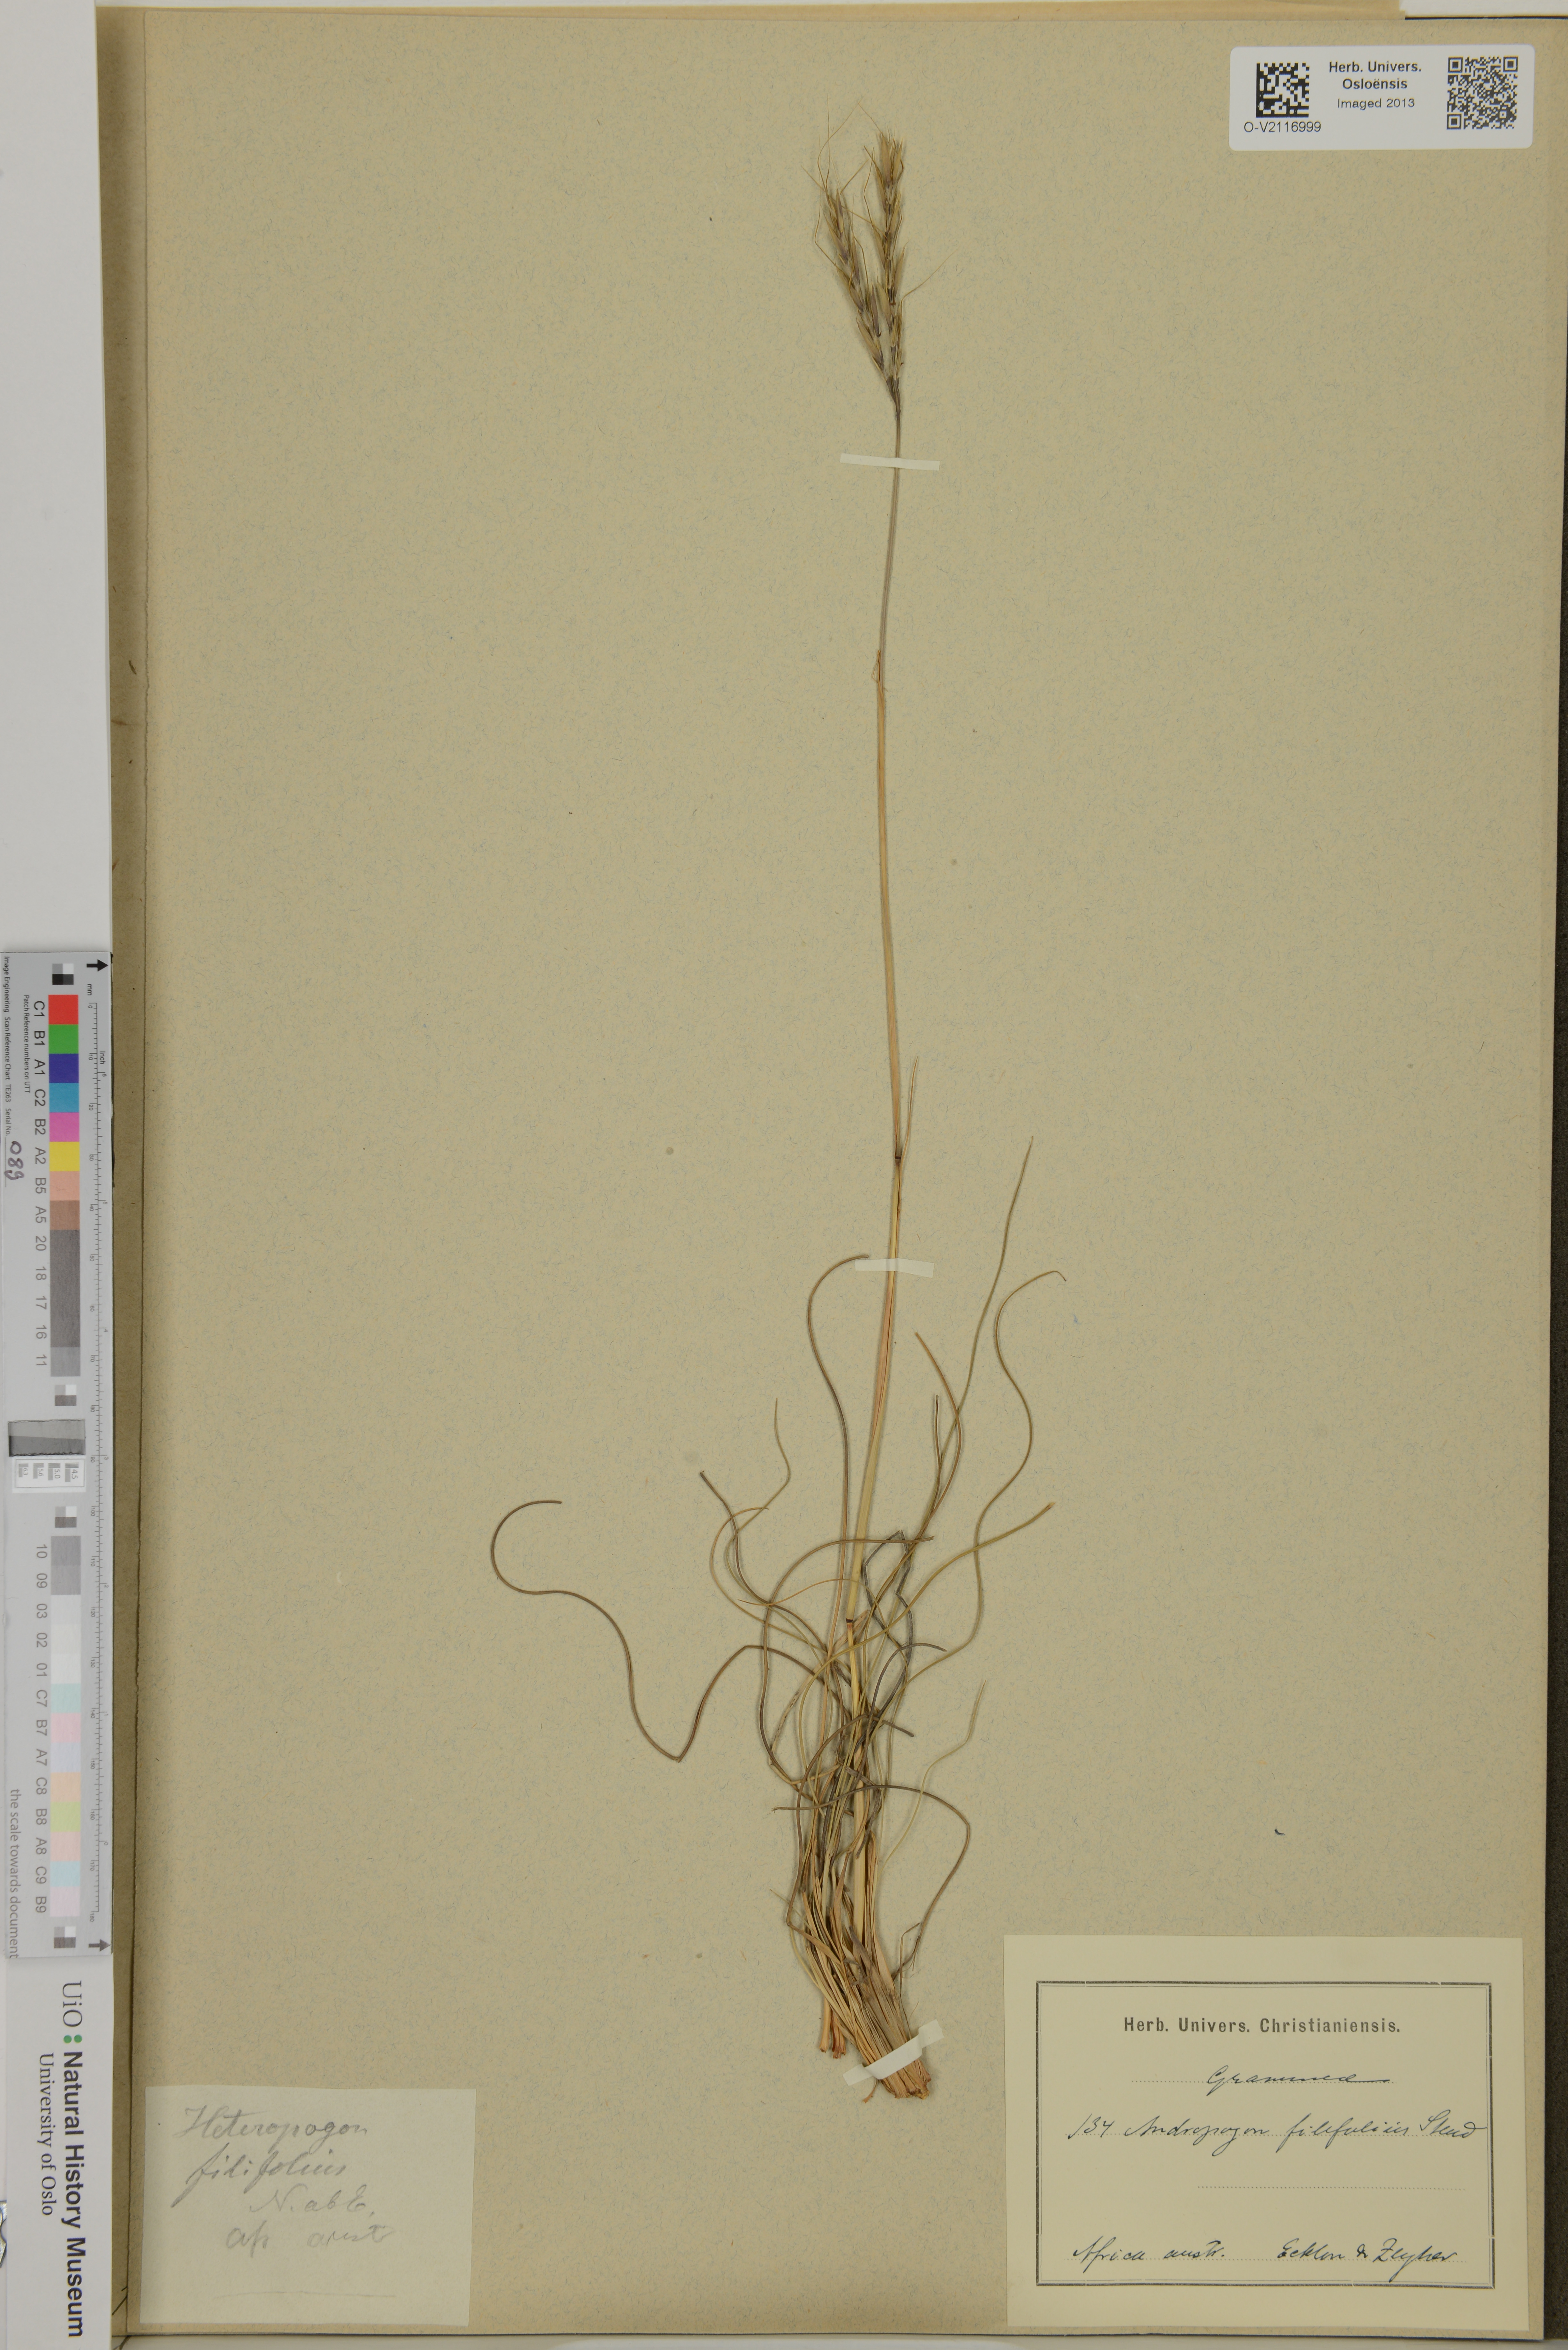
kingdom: Plantae
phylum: Tracheophyta
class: Liliopsida
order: Poales
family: Poaceae
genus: Diheteropogon
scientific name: Diheteropogon filifolius
